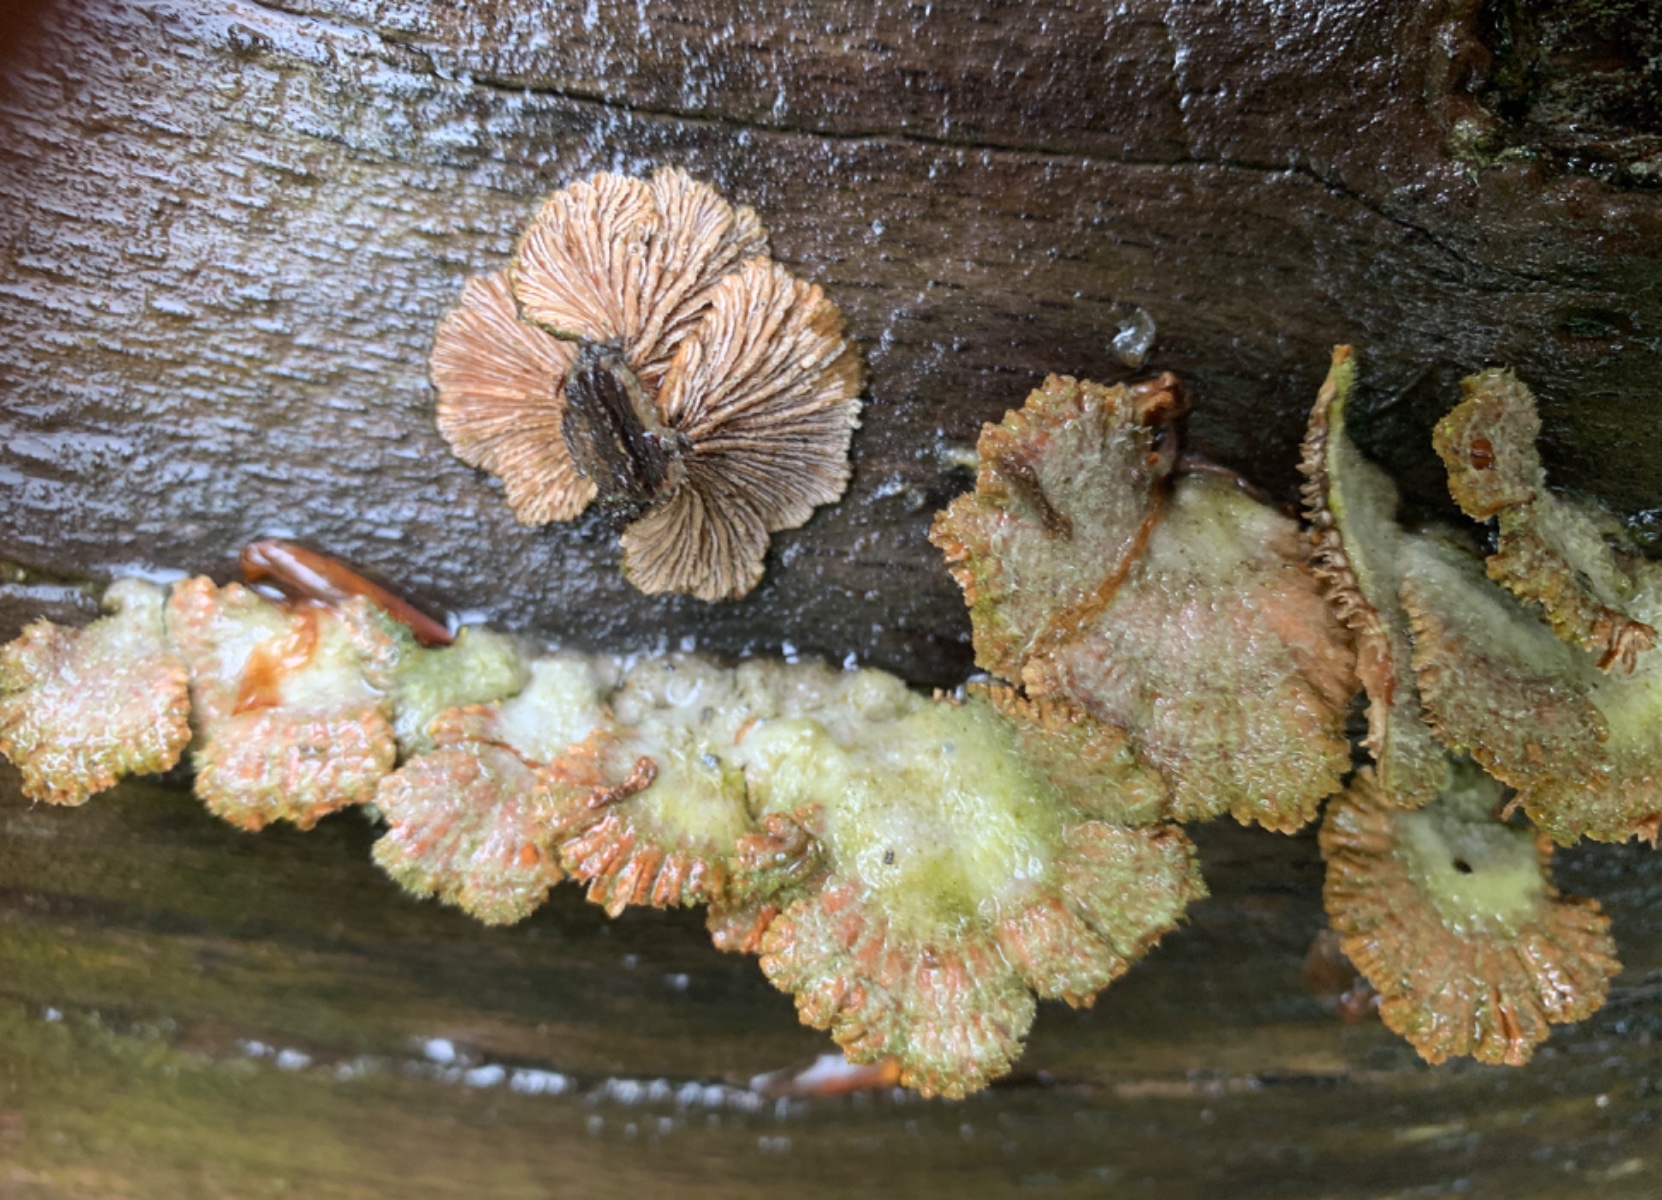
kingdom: Fungi
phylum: Basidiomycota
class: Agaricomycetes
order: Agaricales
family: Schizophyllaceae
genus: Schizophyllum
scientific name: Schizophyllum commune
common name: kløvblad
